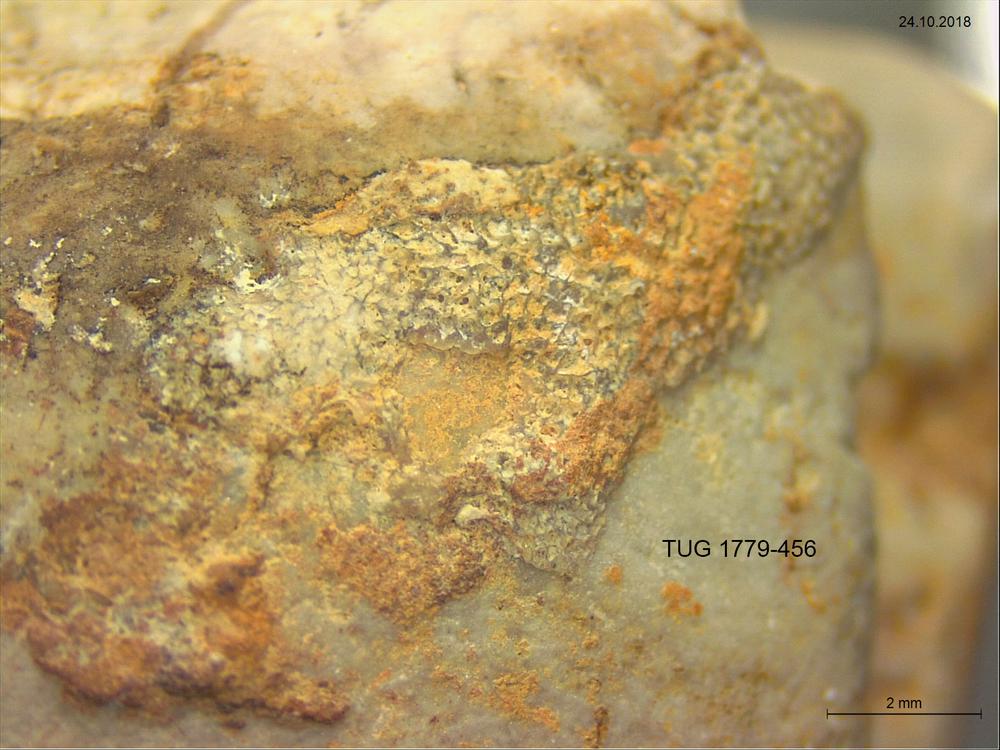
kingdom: Animalia
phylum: Bryozoa
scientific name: Bryozoa
